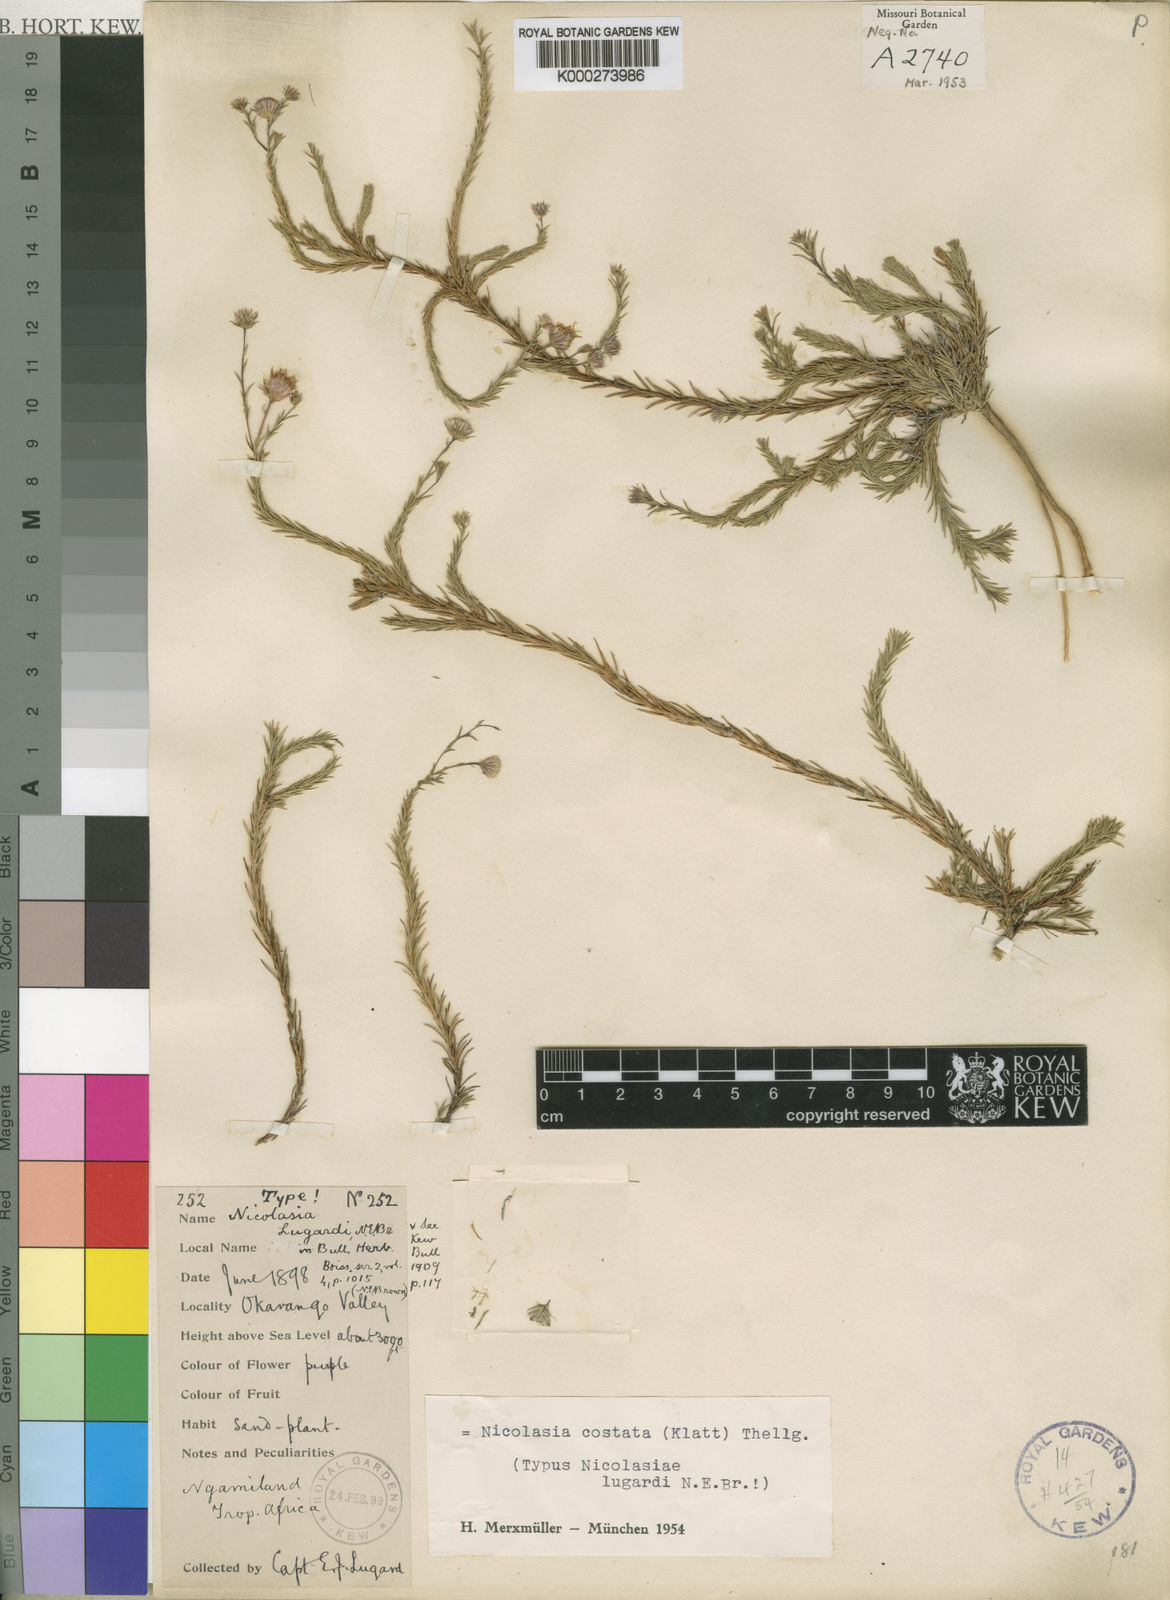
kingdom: Plantae
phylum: Tracheophyta
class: Magnoliopsida
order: Asterales
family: Asteraceae
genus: Nicolasia
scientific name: Nicolasia costata
